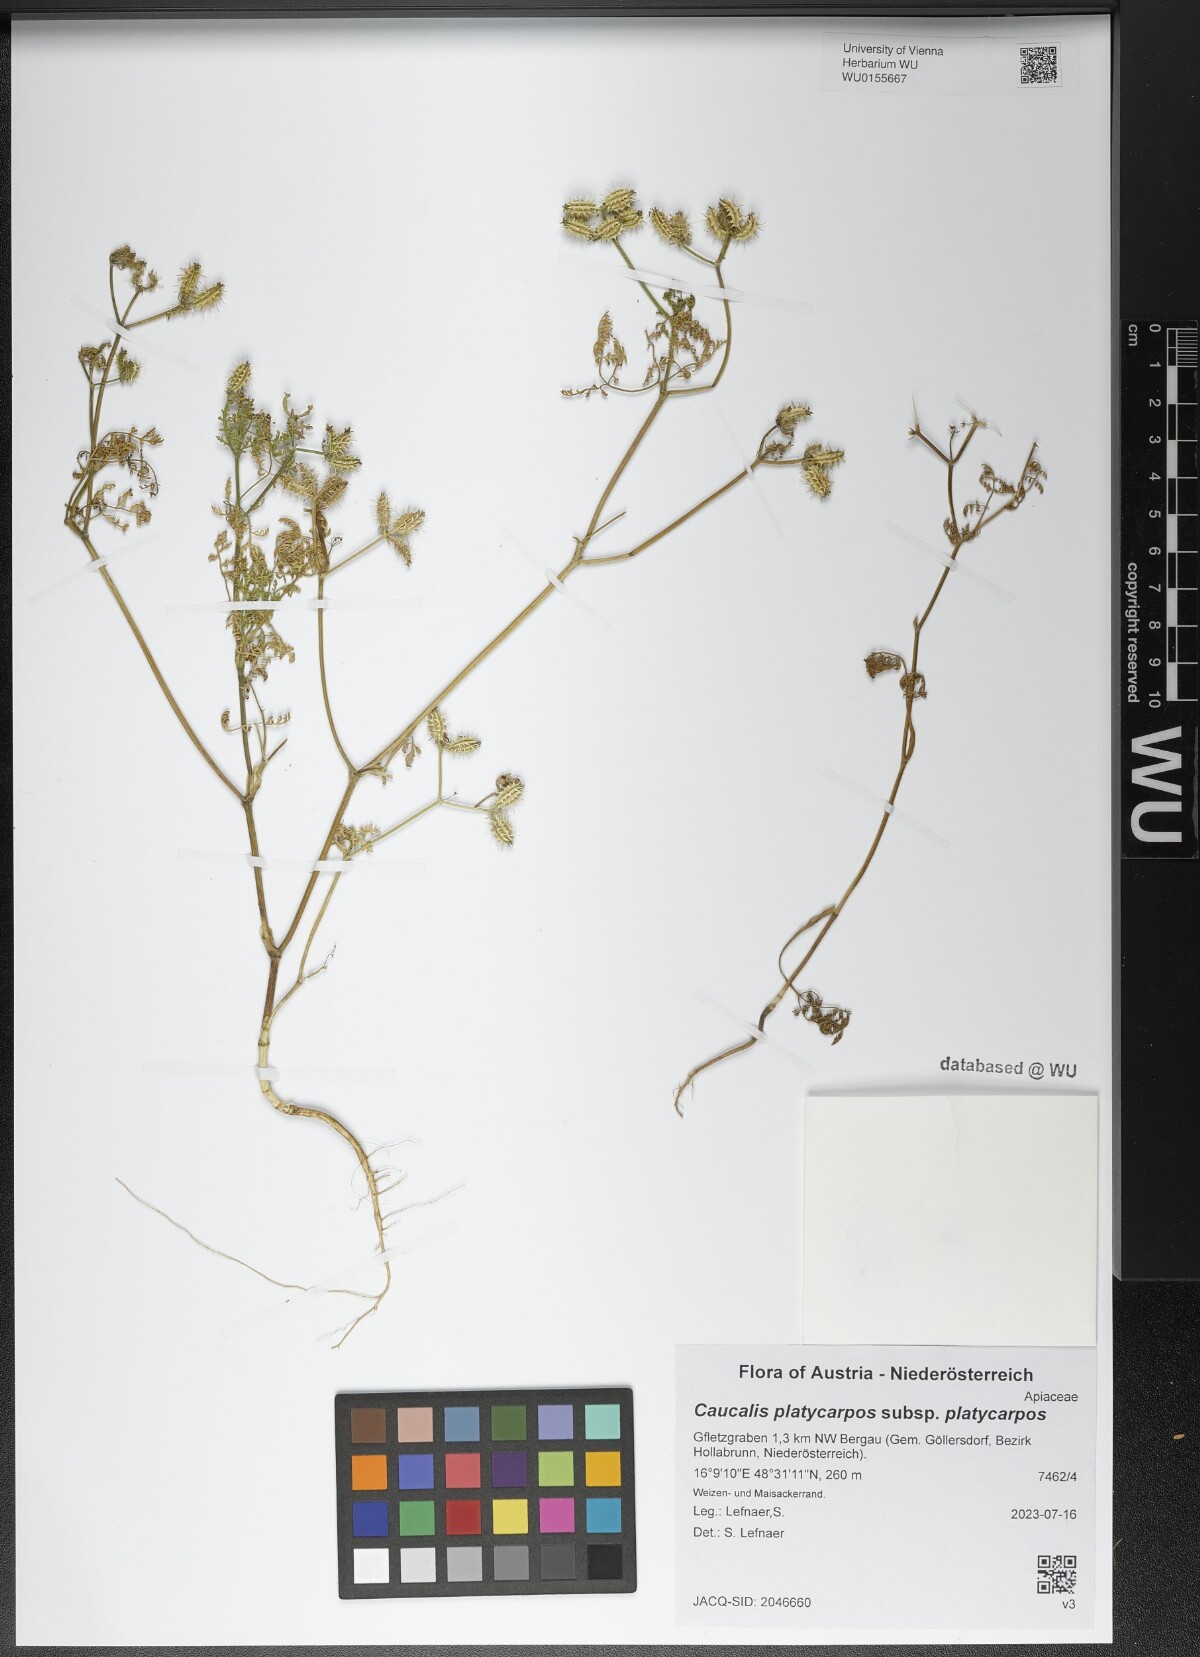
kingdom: Plantae
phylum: Tracheophyta
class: Magnoliopsida
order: Apiales
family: Apiaceae
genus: Caucalis
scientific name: Caucalis platycarpos
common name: Small bur-parsley
